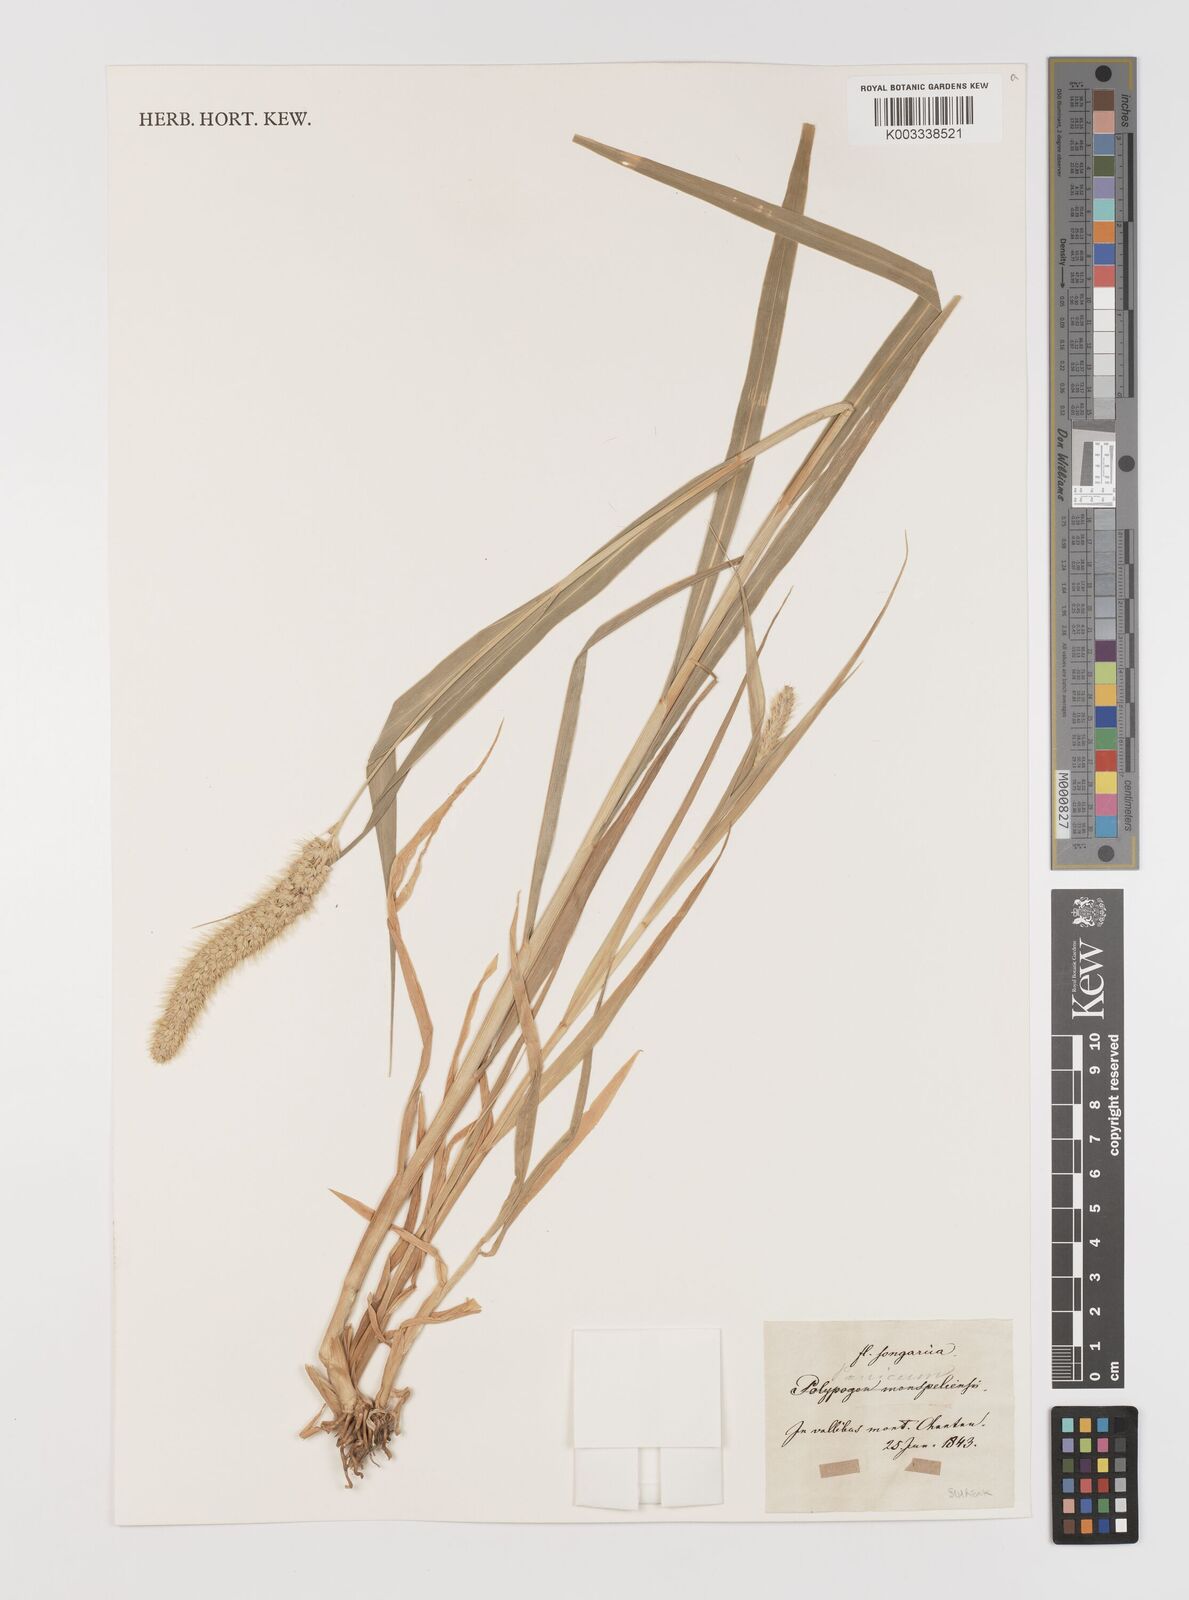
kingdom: Plantae
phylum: Tracheophyta
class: Liliopsida
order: Poales
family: Poaceae
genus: Cenchrus
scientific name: Cenchrus americanus
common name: Pearl millet
